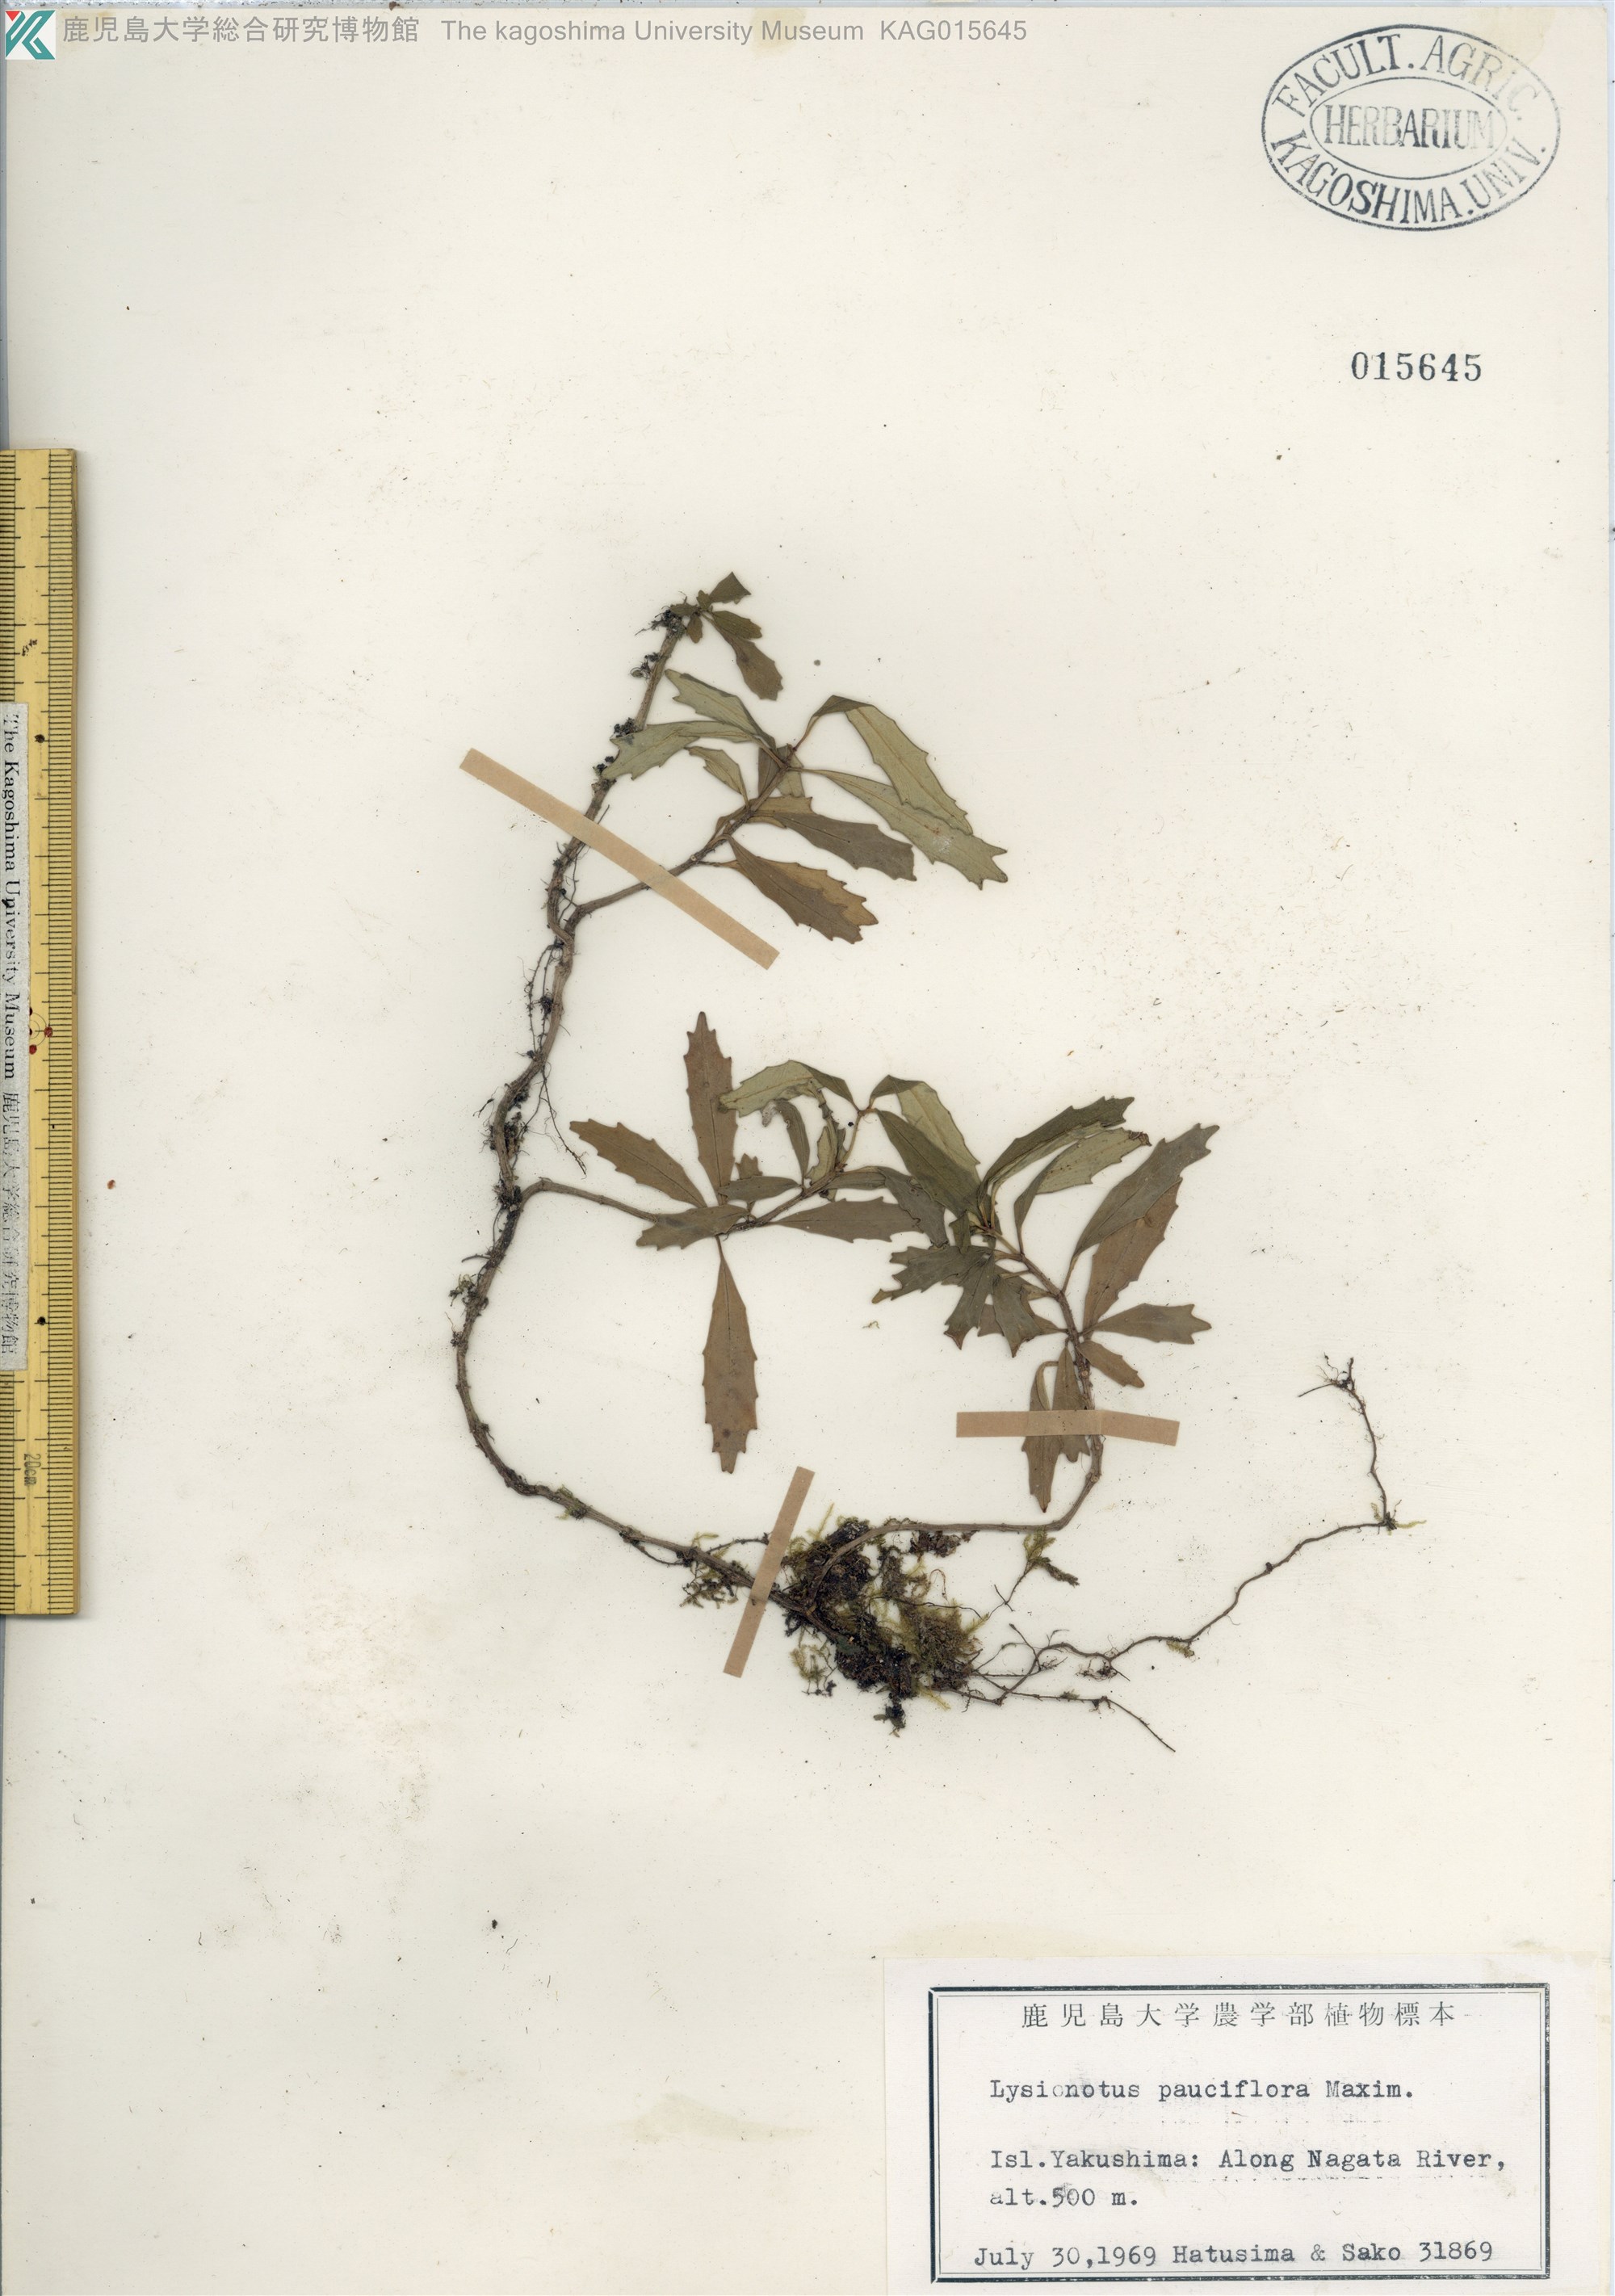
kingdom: Plantae
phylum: Tracheophyta
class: Magnoliopsida
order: Lamiales
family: Gesneriaceae
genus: Lysionotus
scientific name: Lysionotus pauciflorus
